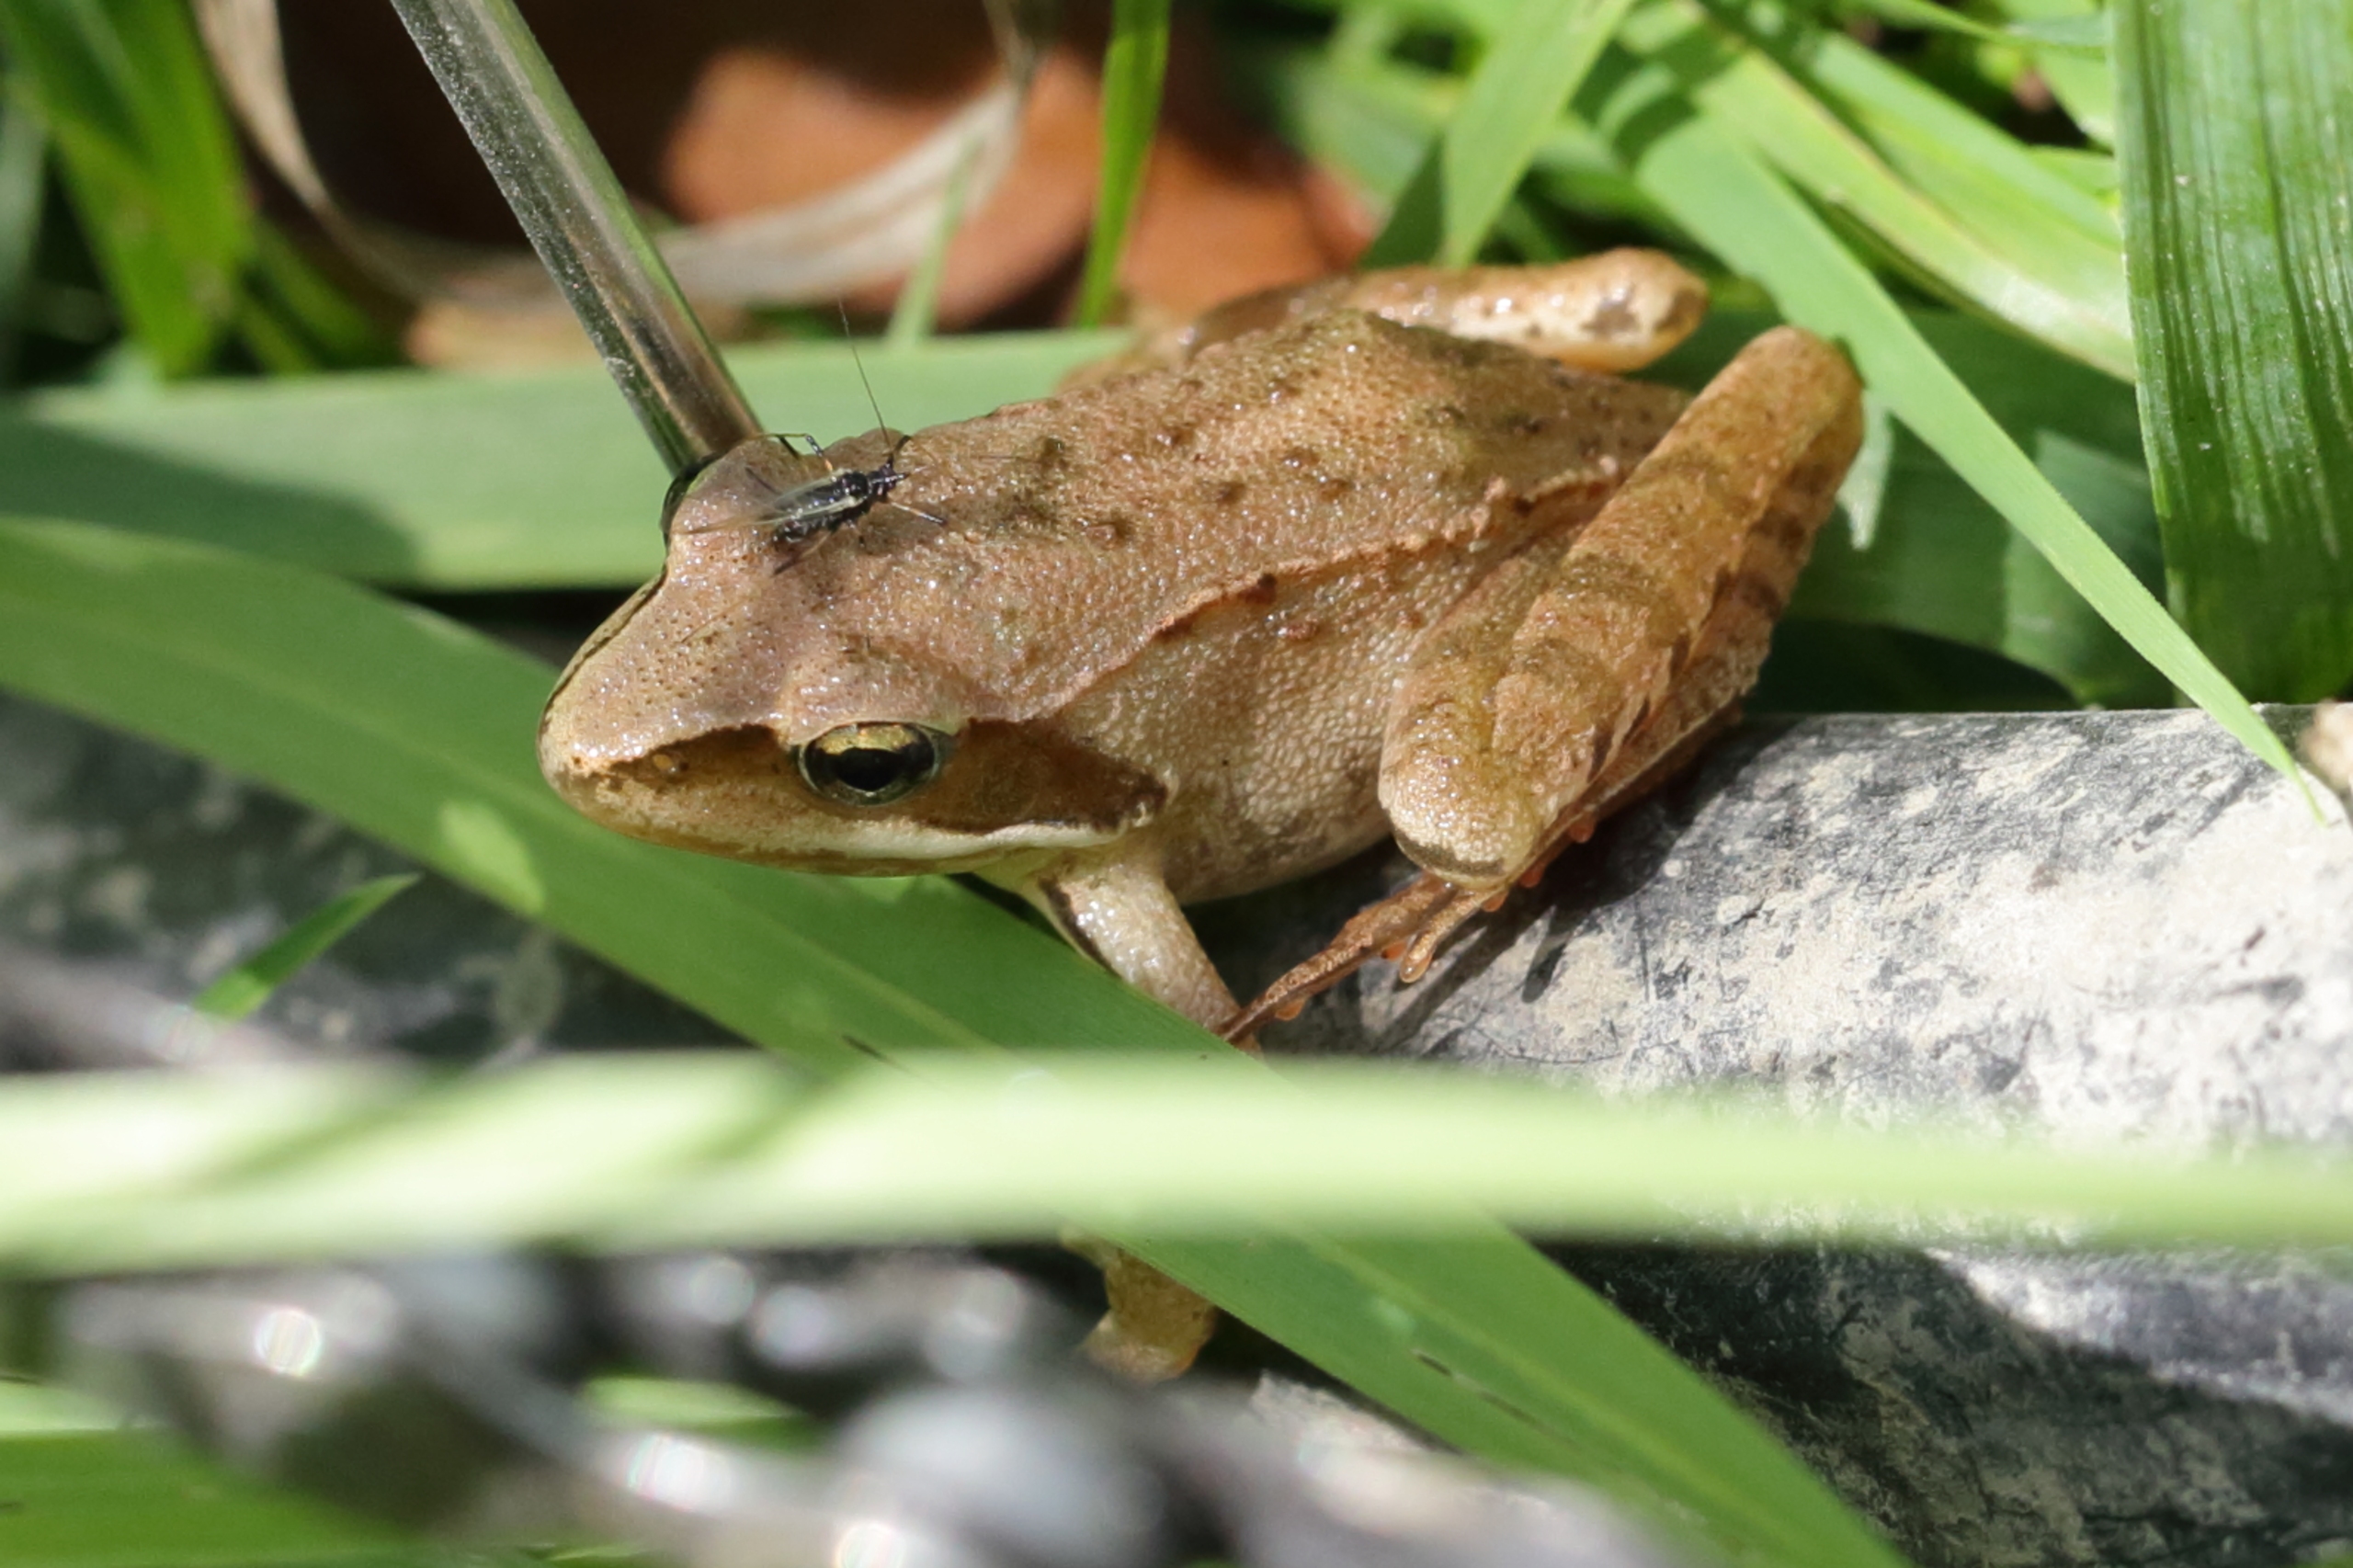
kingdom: Animalia
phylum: Chordata
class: Amphibia
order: Anura
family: Ranidae
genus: Rana
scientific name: Rana dalmatina
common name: Springfrø
